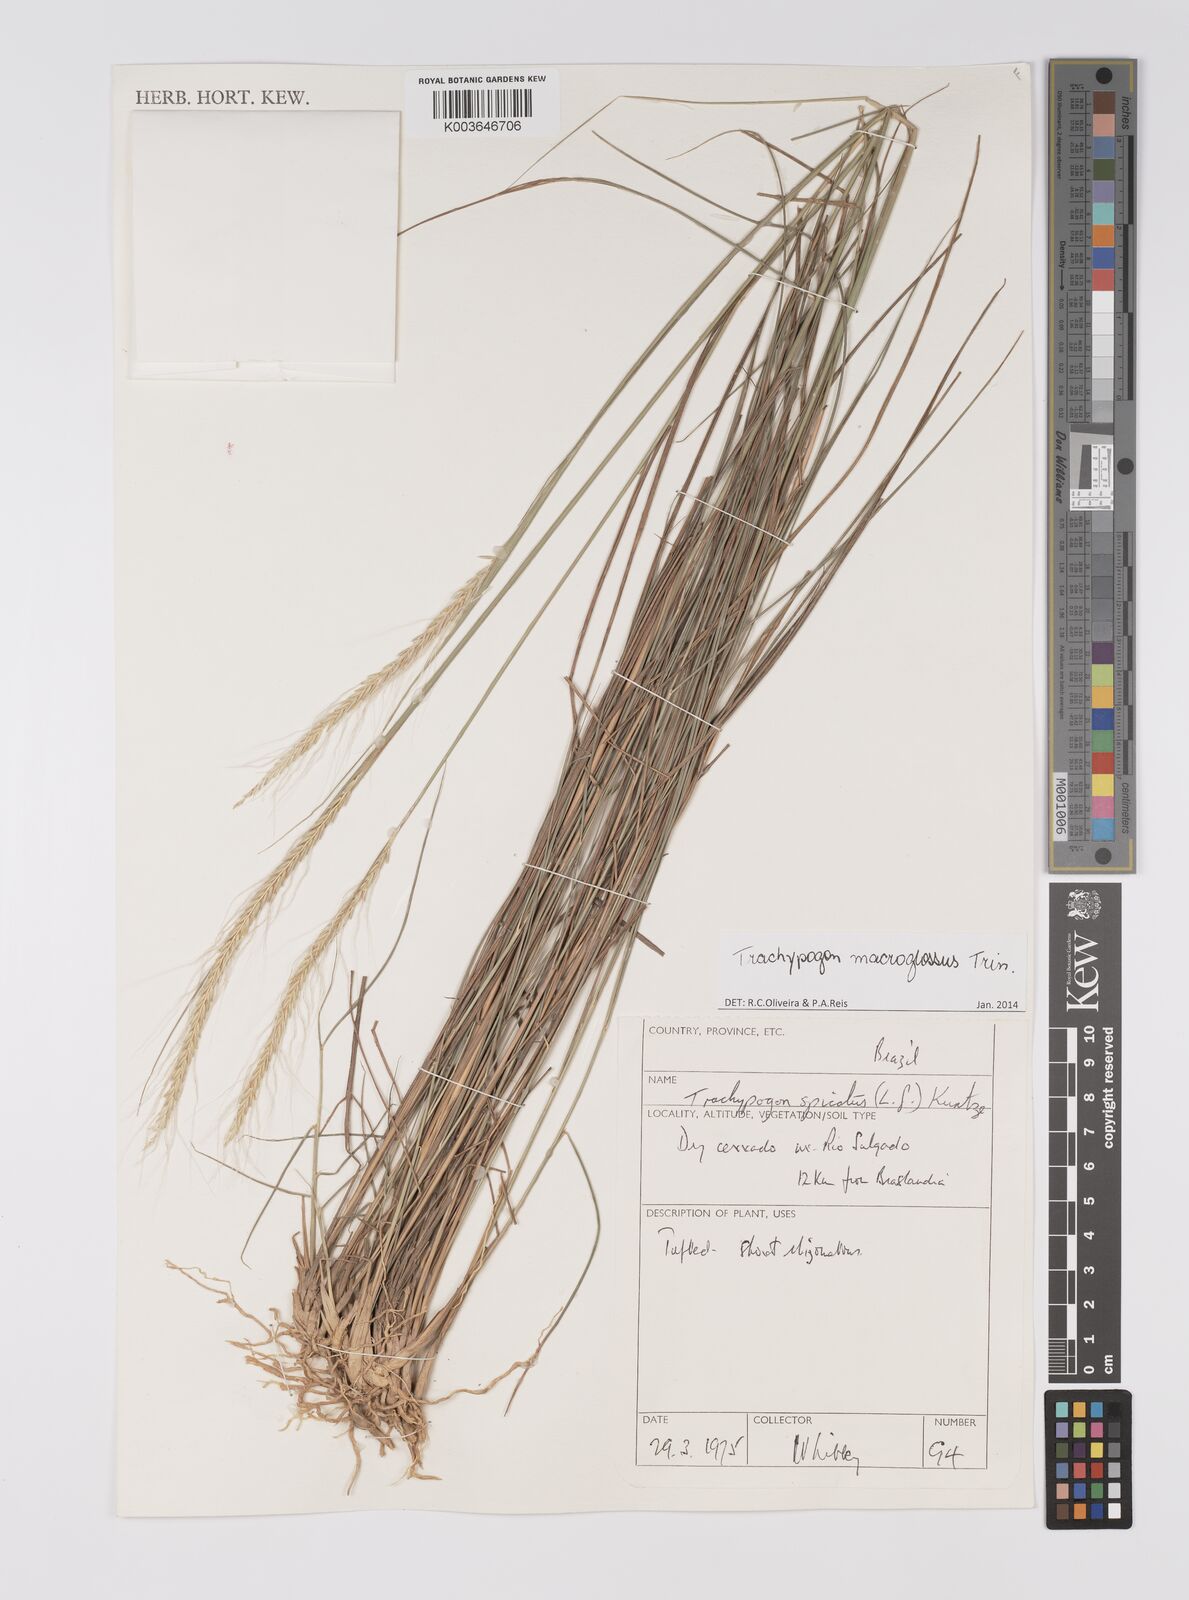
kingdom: Plantae
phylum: Tracheophyta
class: Liliopsida
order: Poales
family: Poaceae
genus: Trachypogon
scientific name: Trachypogon macroglossus
